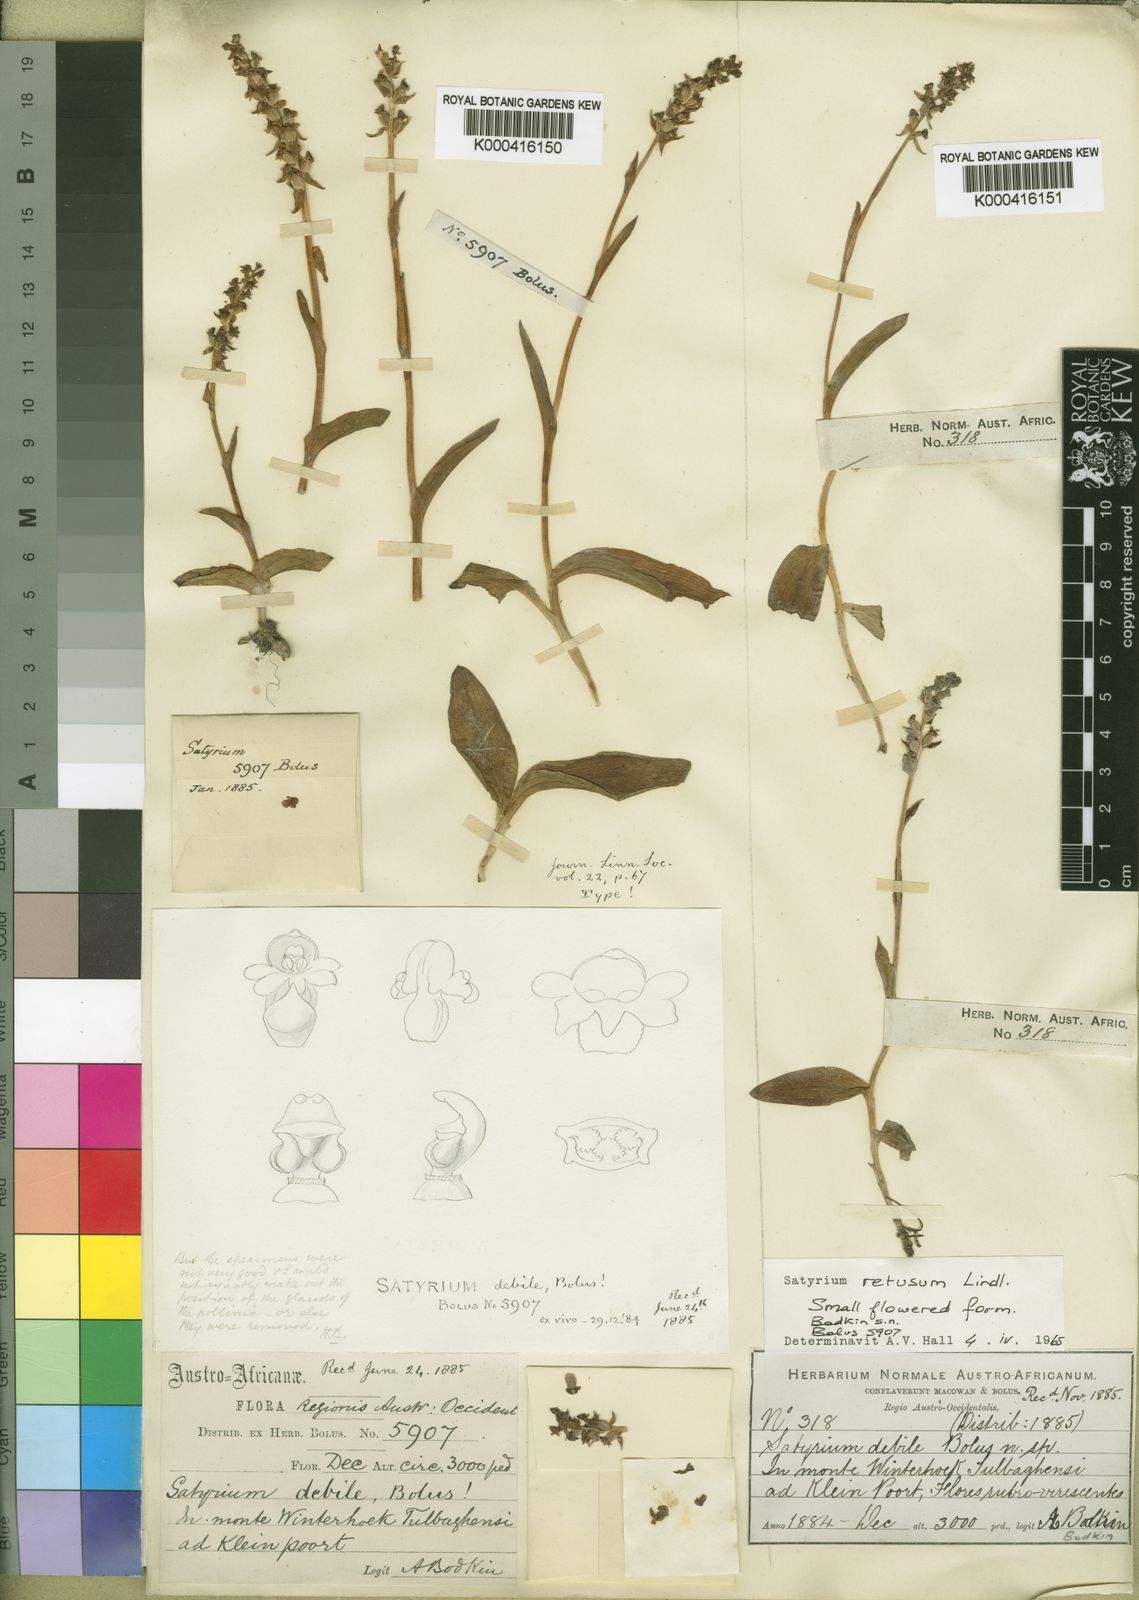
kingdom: Plantae
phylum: Tracheophyta
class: Liliopsida
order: Asparagales
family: Orchidaceae
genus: Satyrium
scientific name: Satyrium retusum
